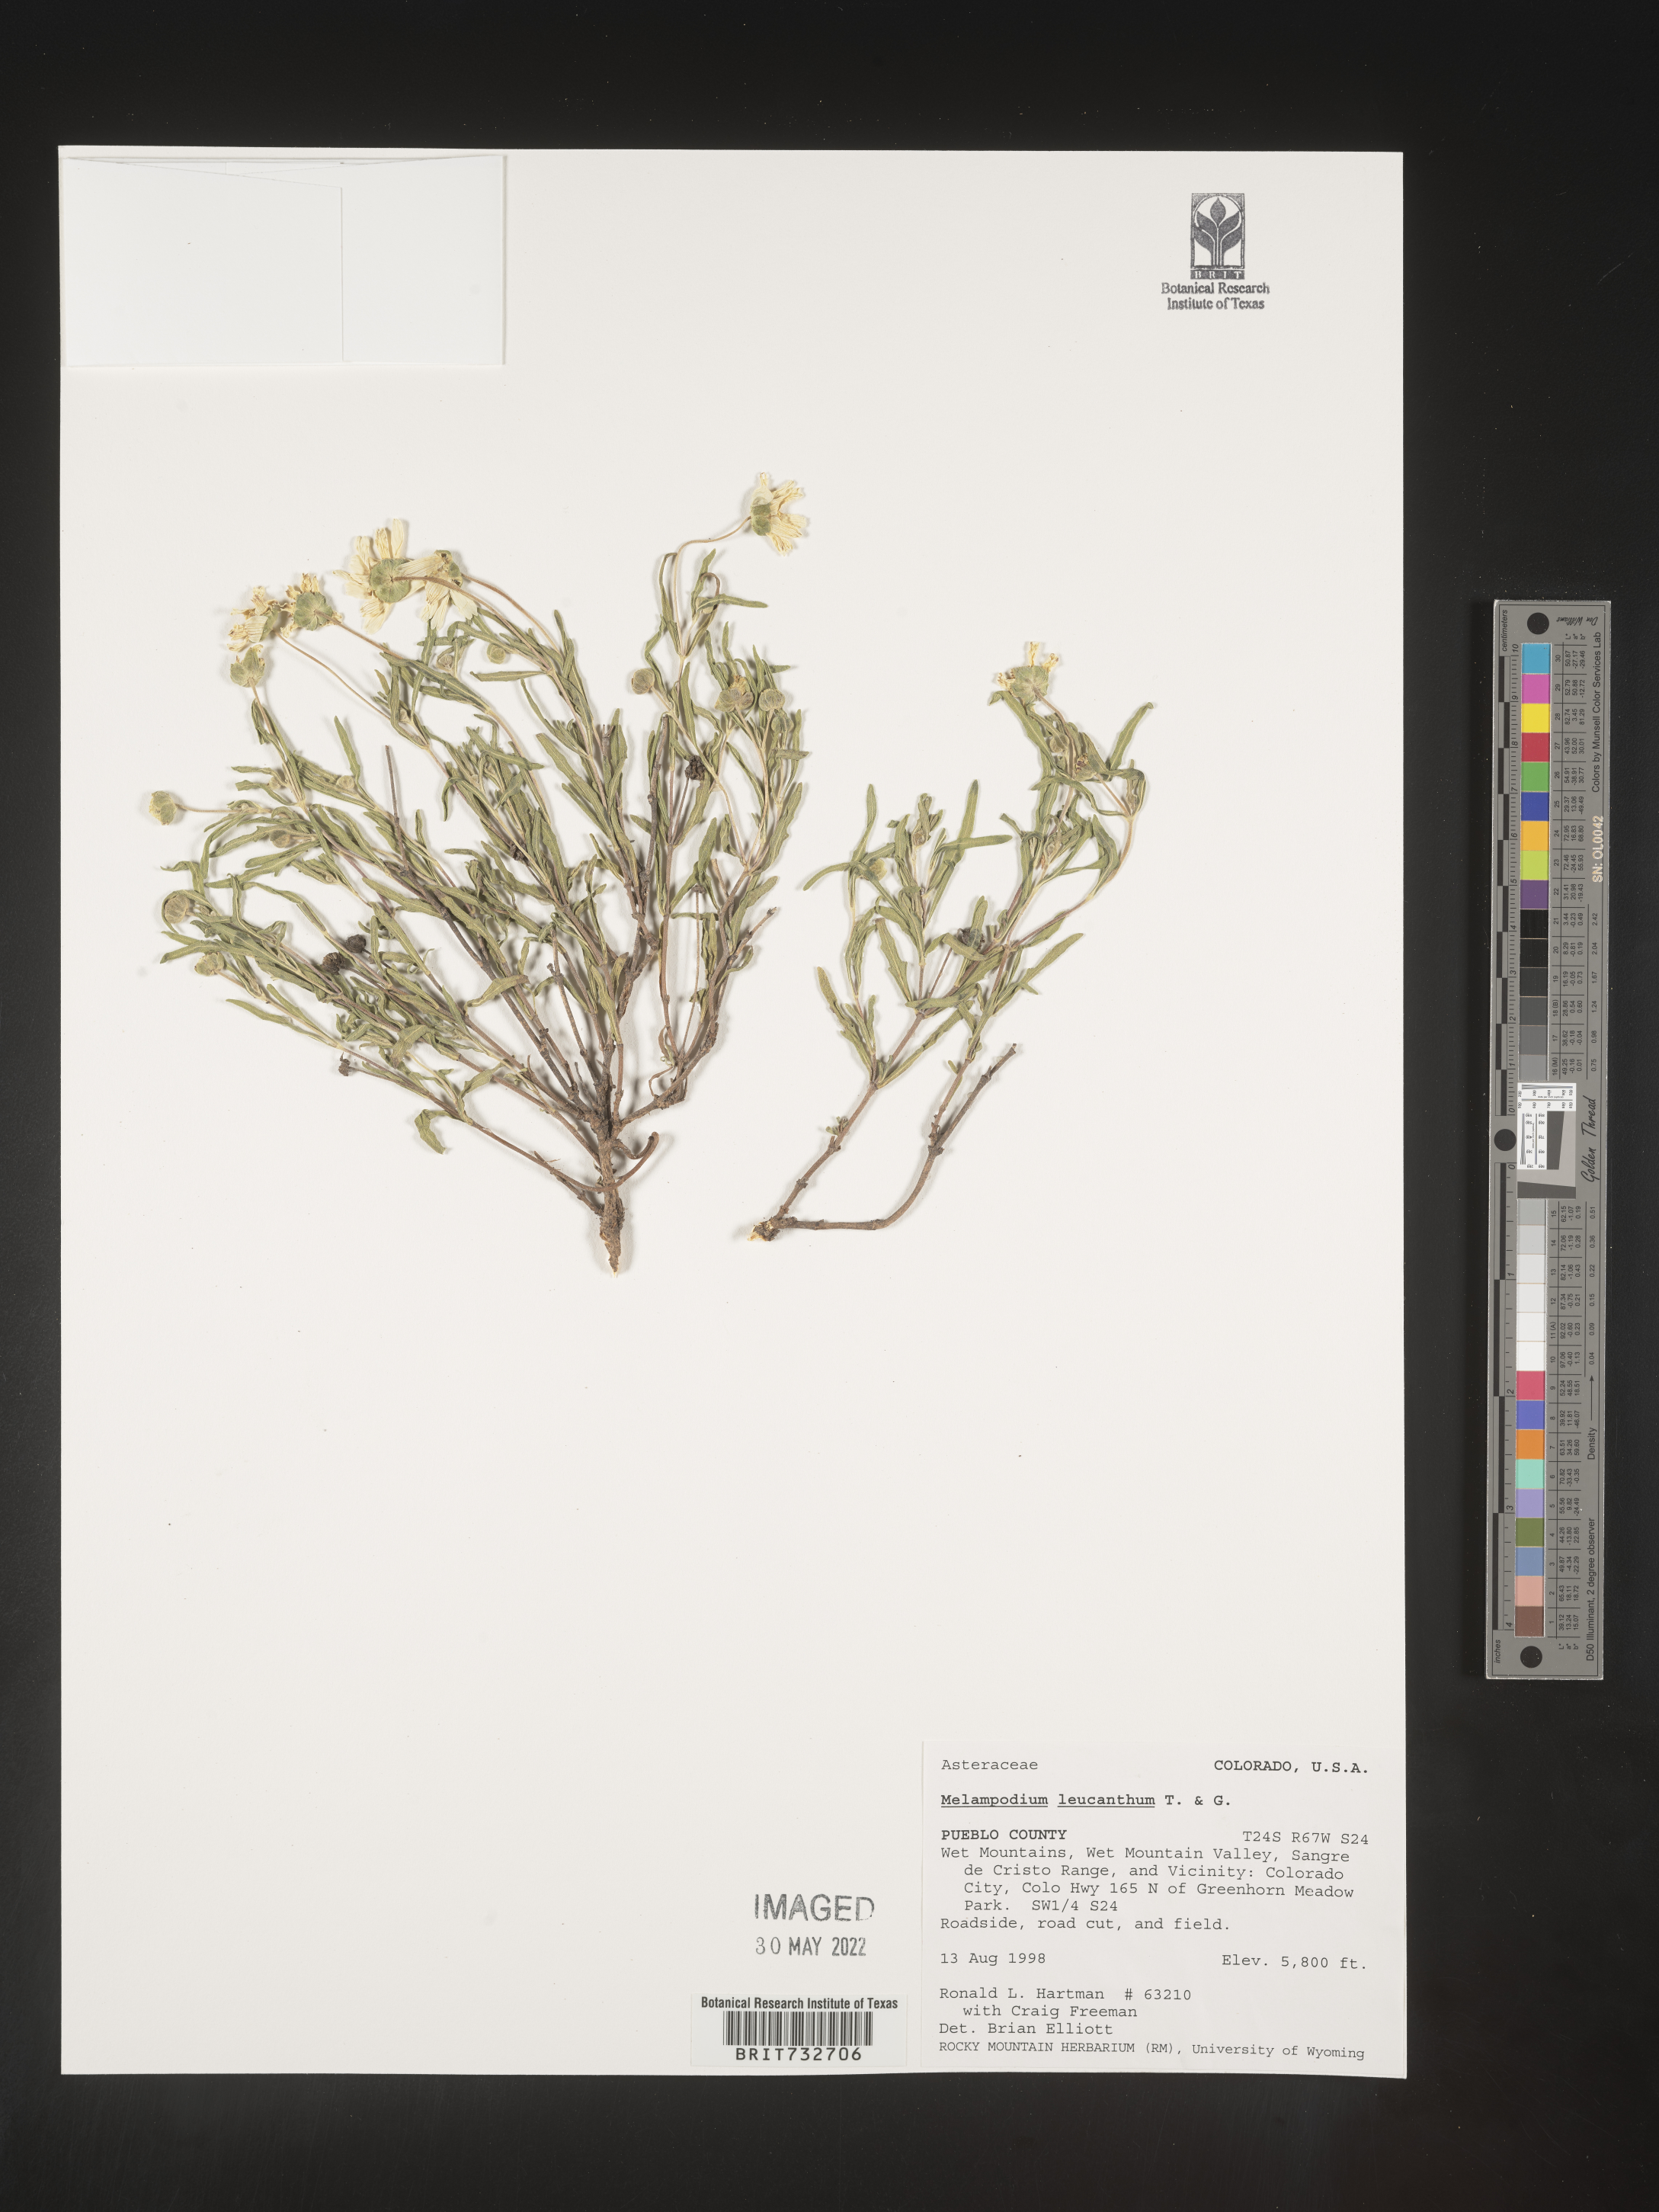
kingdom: Plantae
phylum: Tracheophyta
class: Magnoliopsida
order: Asterales
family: Asteraceae
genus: Melampodium
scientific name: Melampodium leucanthum
